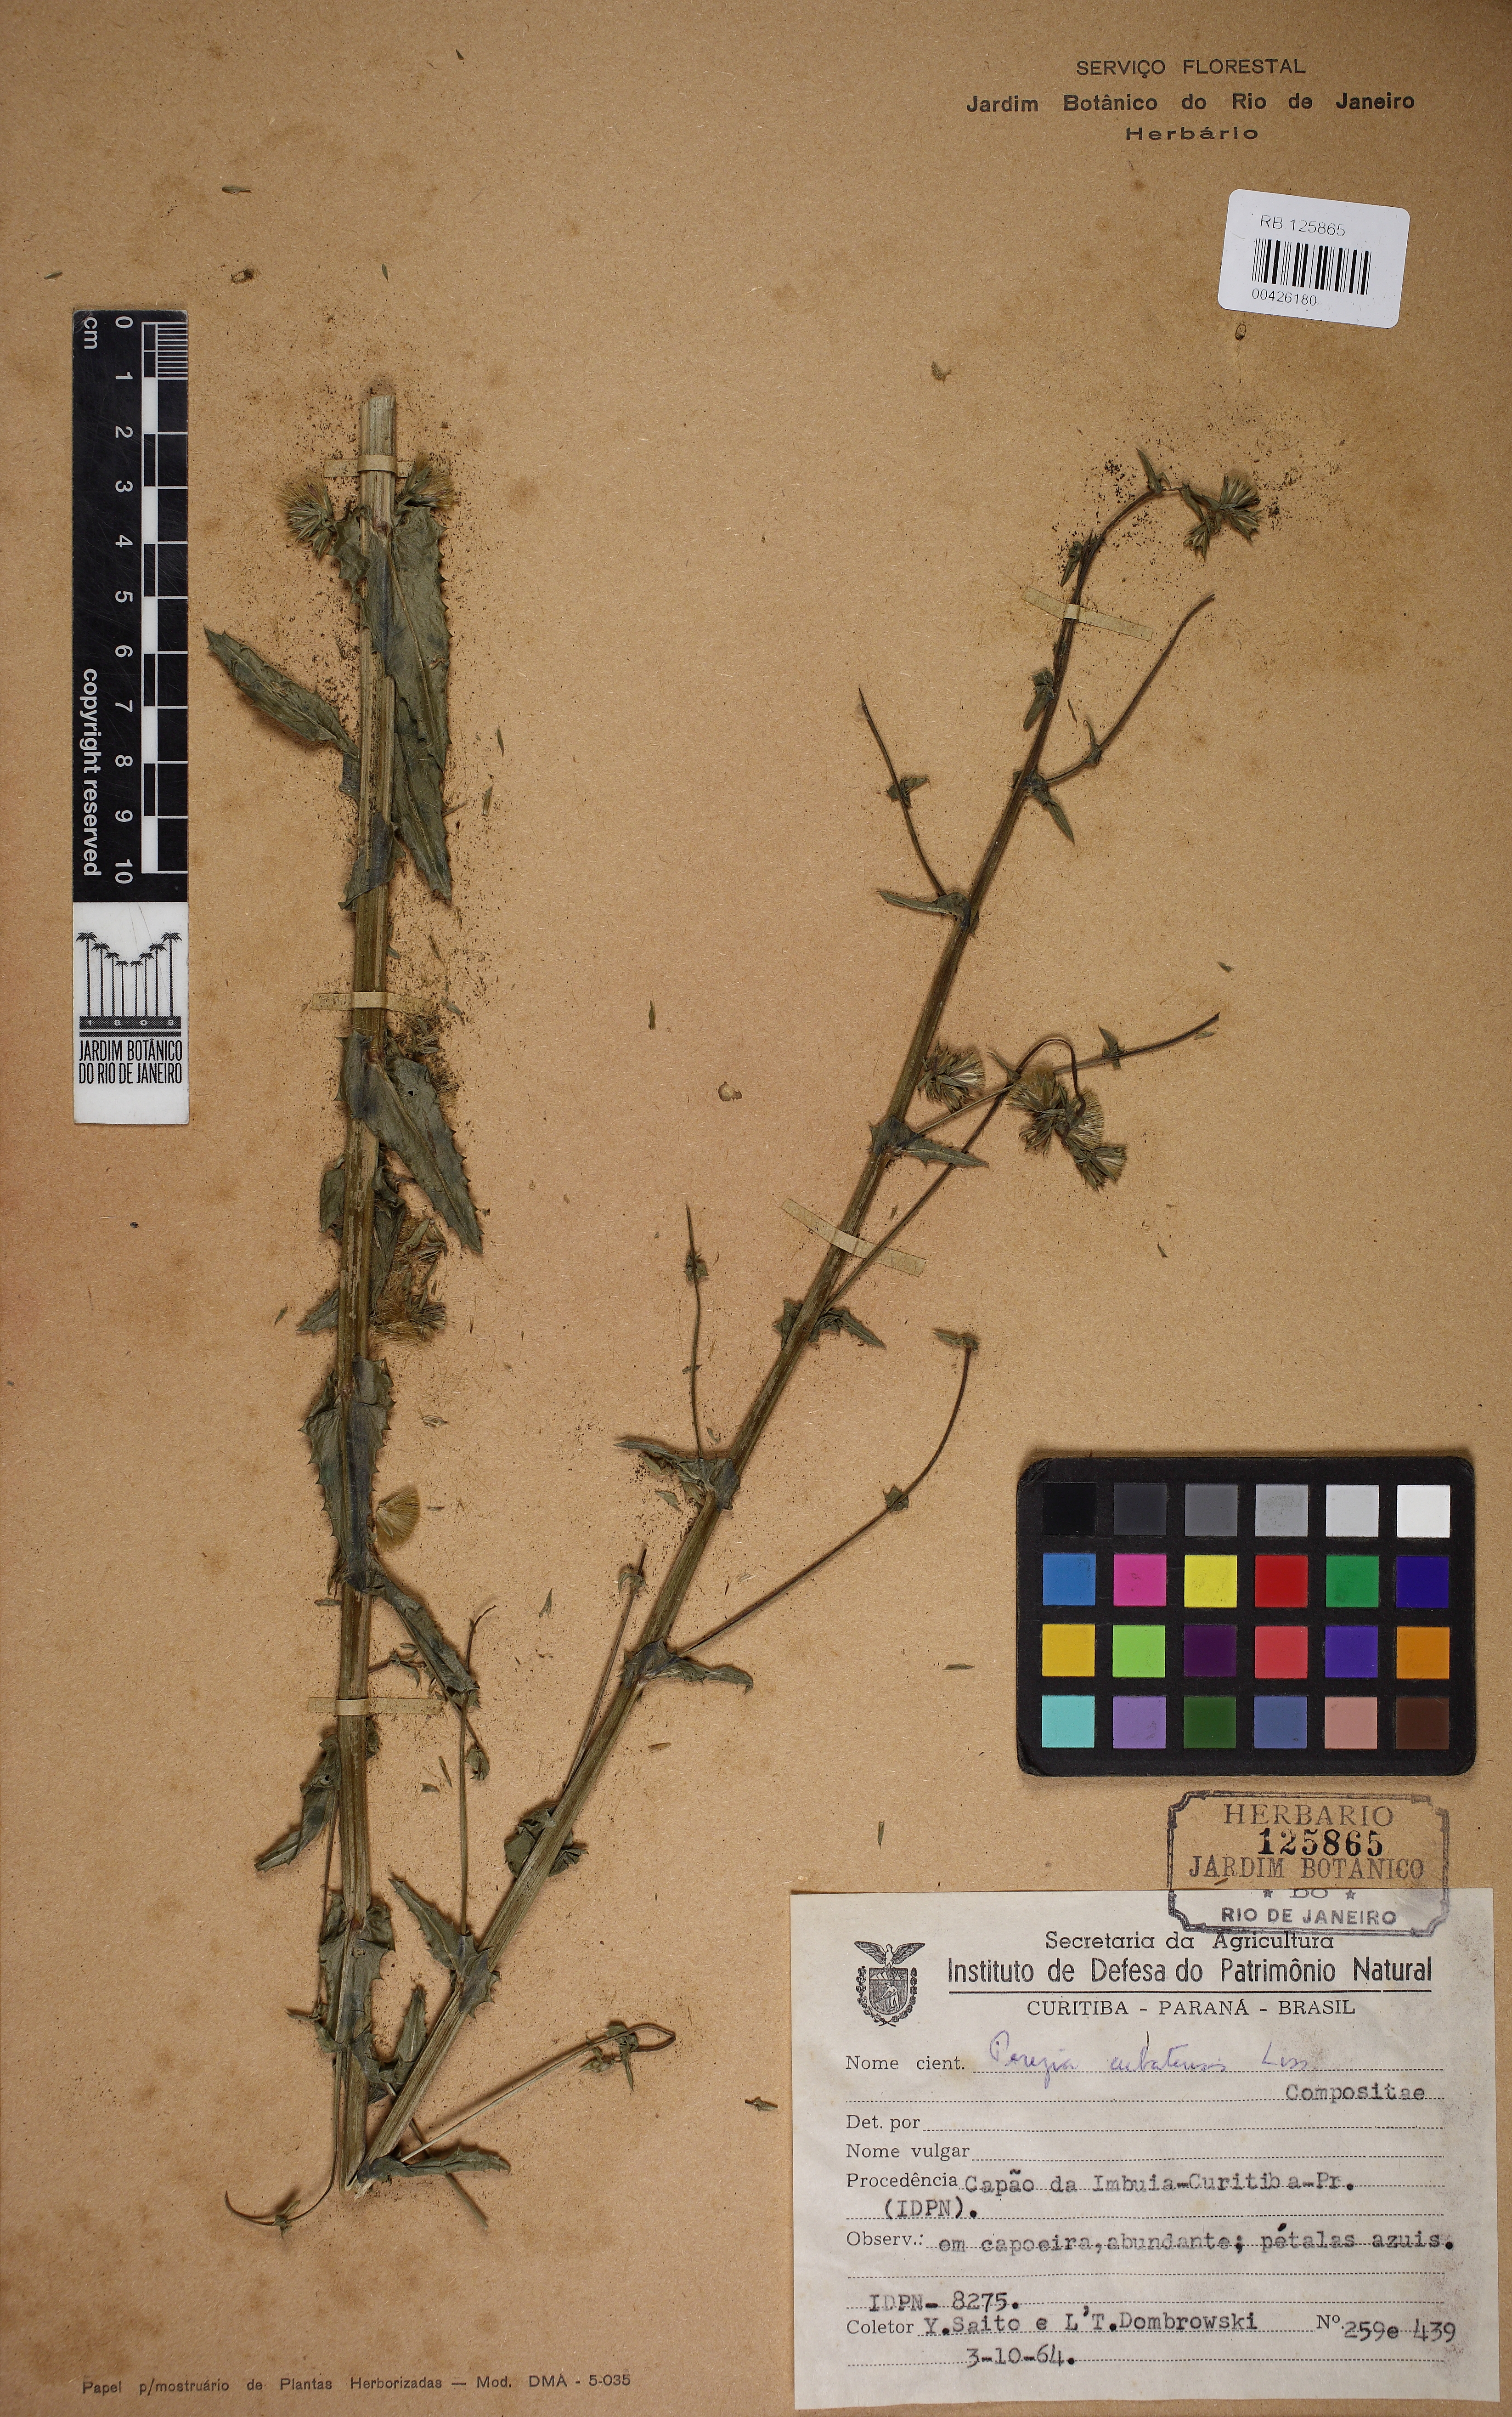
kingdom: Plantae
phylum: Tracheophyta
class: Magnoliopsida
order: Asterales
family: Asteraceae
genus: Perezia
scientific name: Perezia squarrosa
